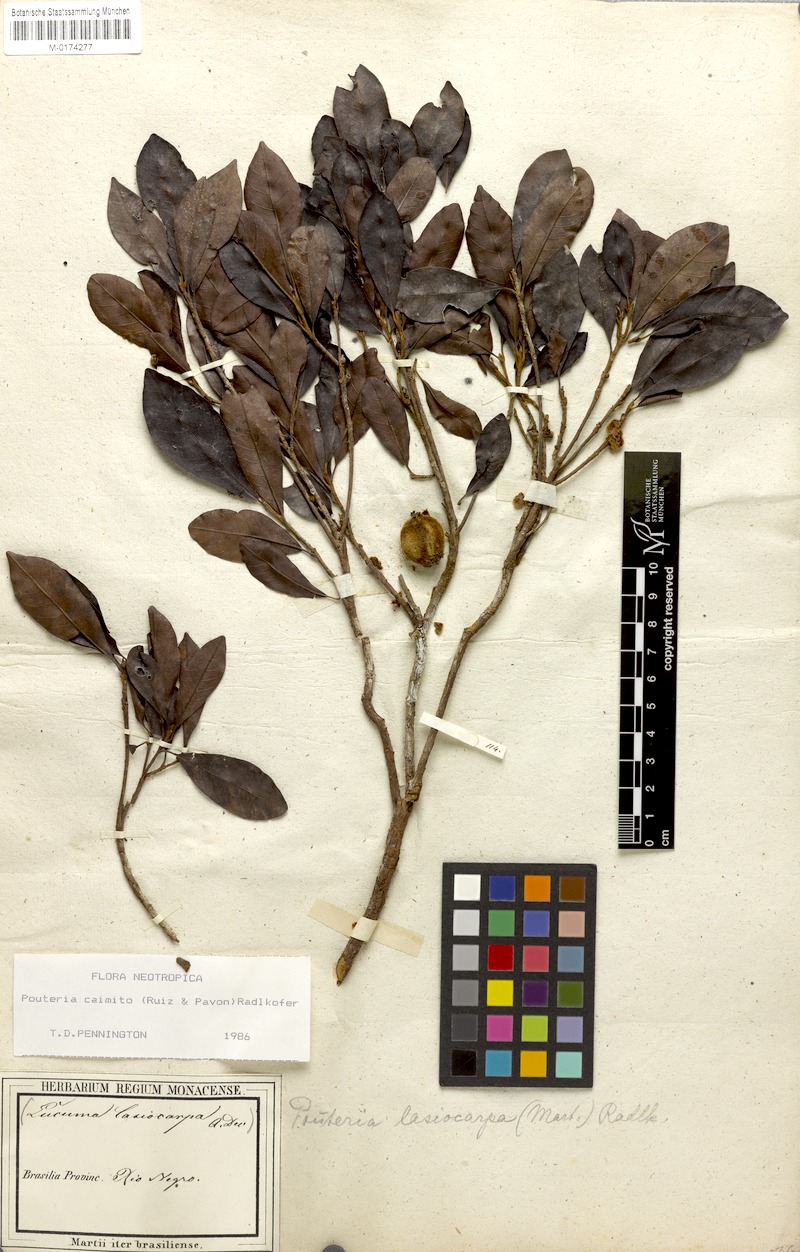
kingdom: Plantae
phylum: Tracheophyta
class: Magnoliopsida
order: Ericales
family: Sapotaceae
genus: Pouteria
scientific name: Pouteria caimito
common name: Caimito
